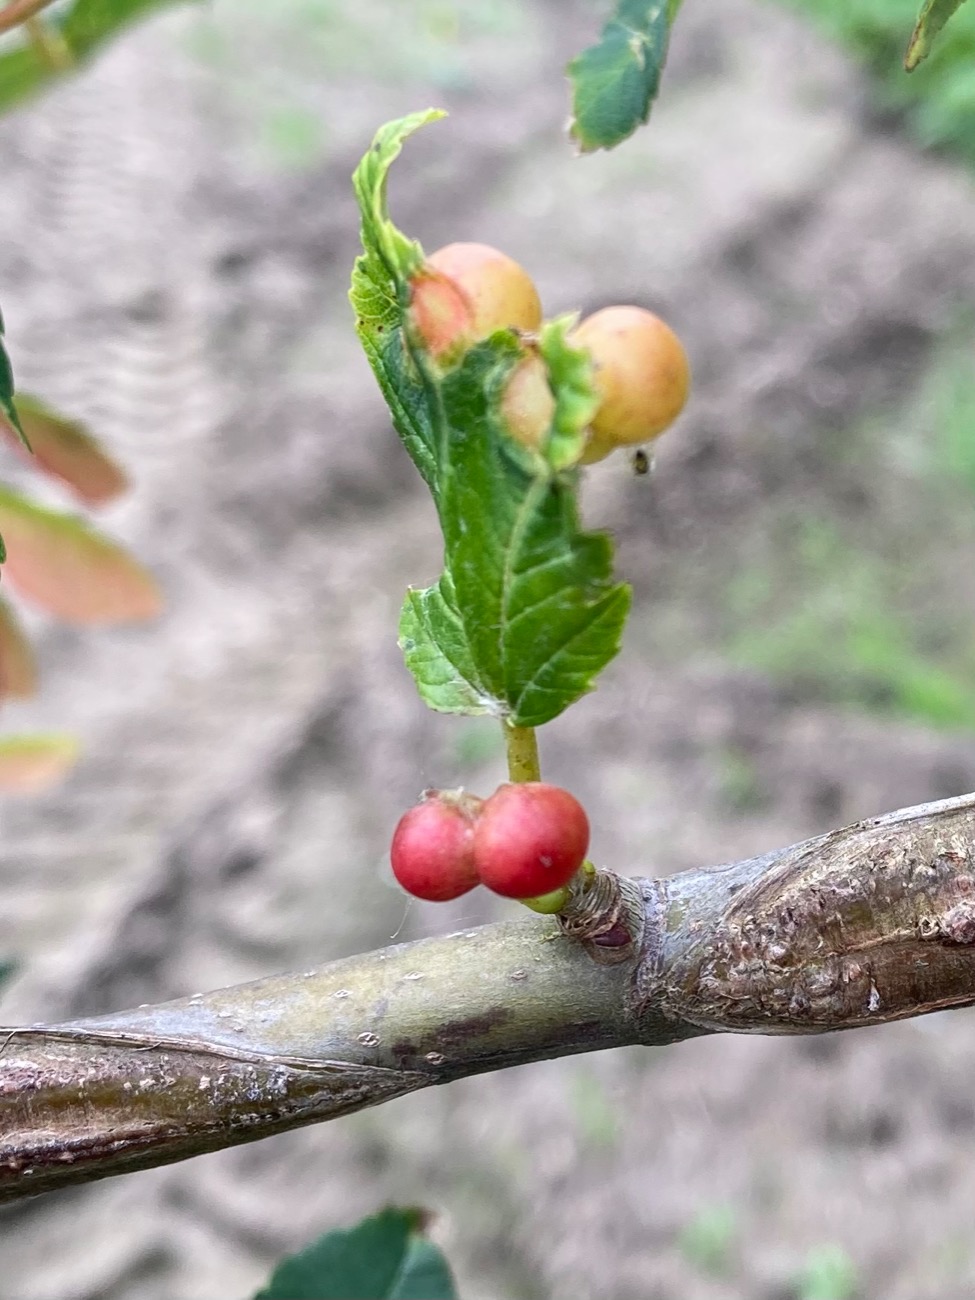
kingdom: Animalia
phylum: Arthropoda
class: Insecta
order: Hymenoptera
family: Cynipidae
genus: Pediaspis
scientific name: Pediaspis aceris
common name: Ahorngalhveps
